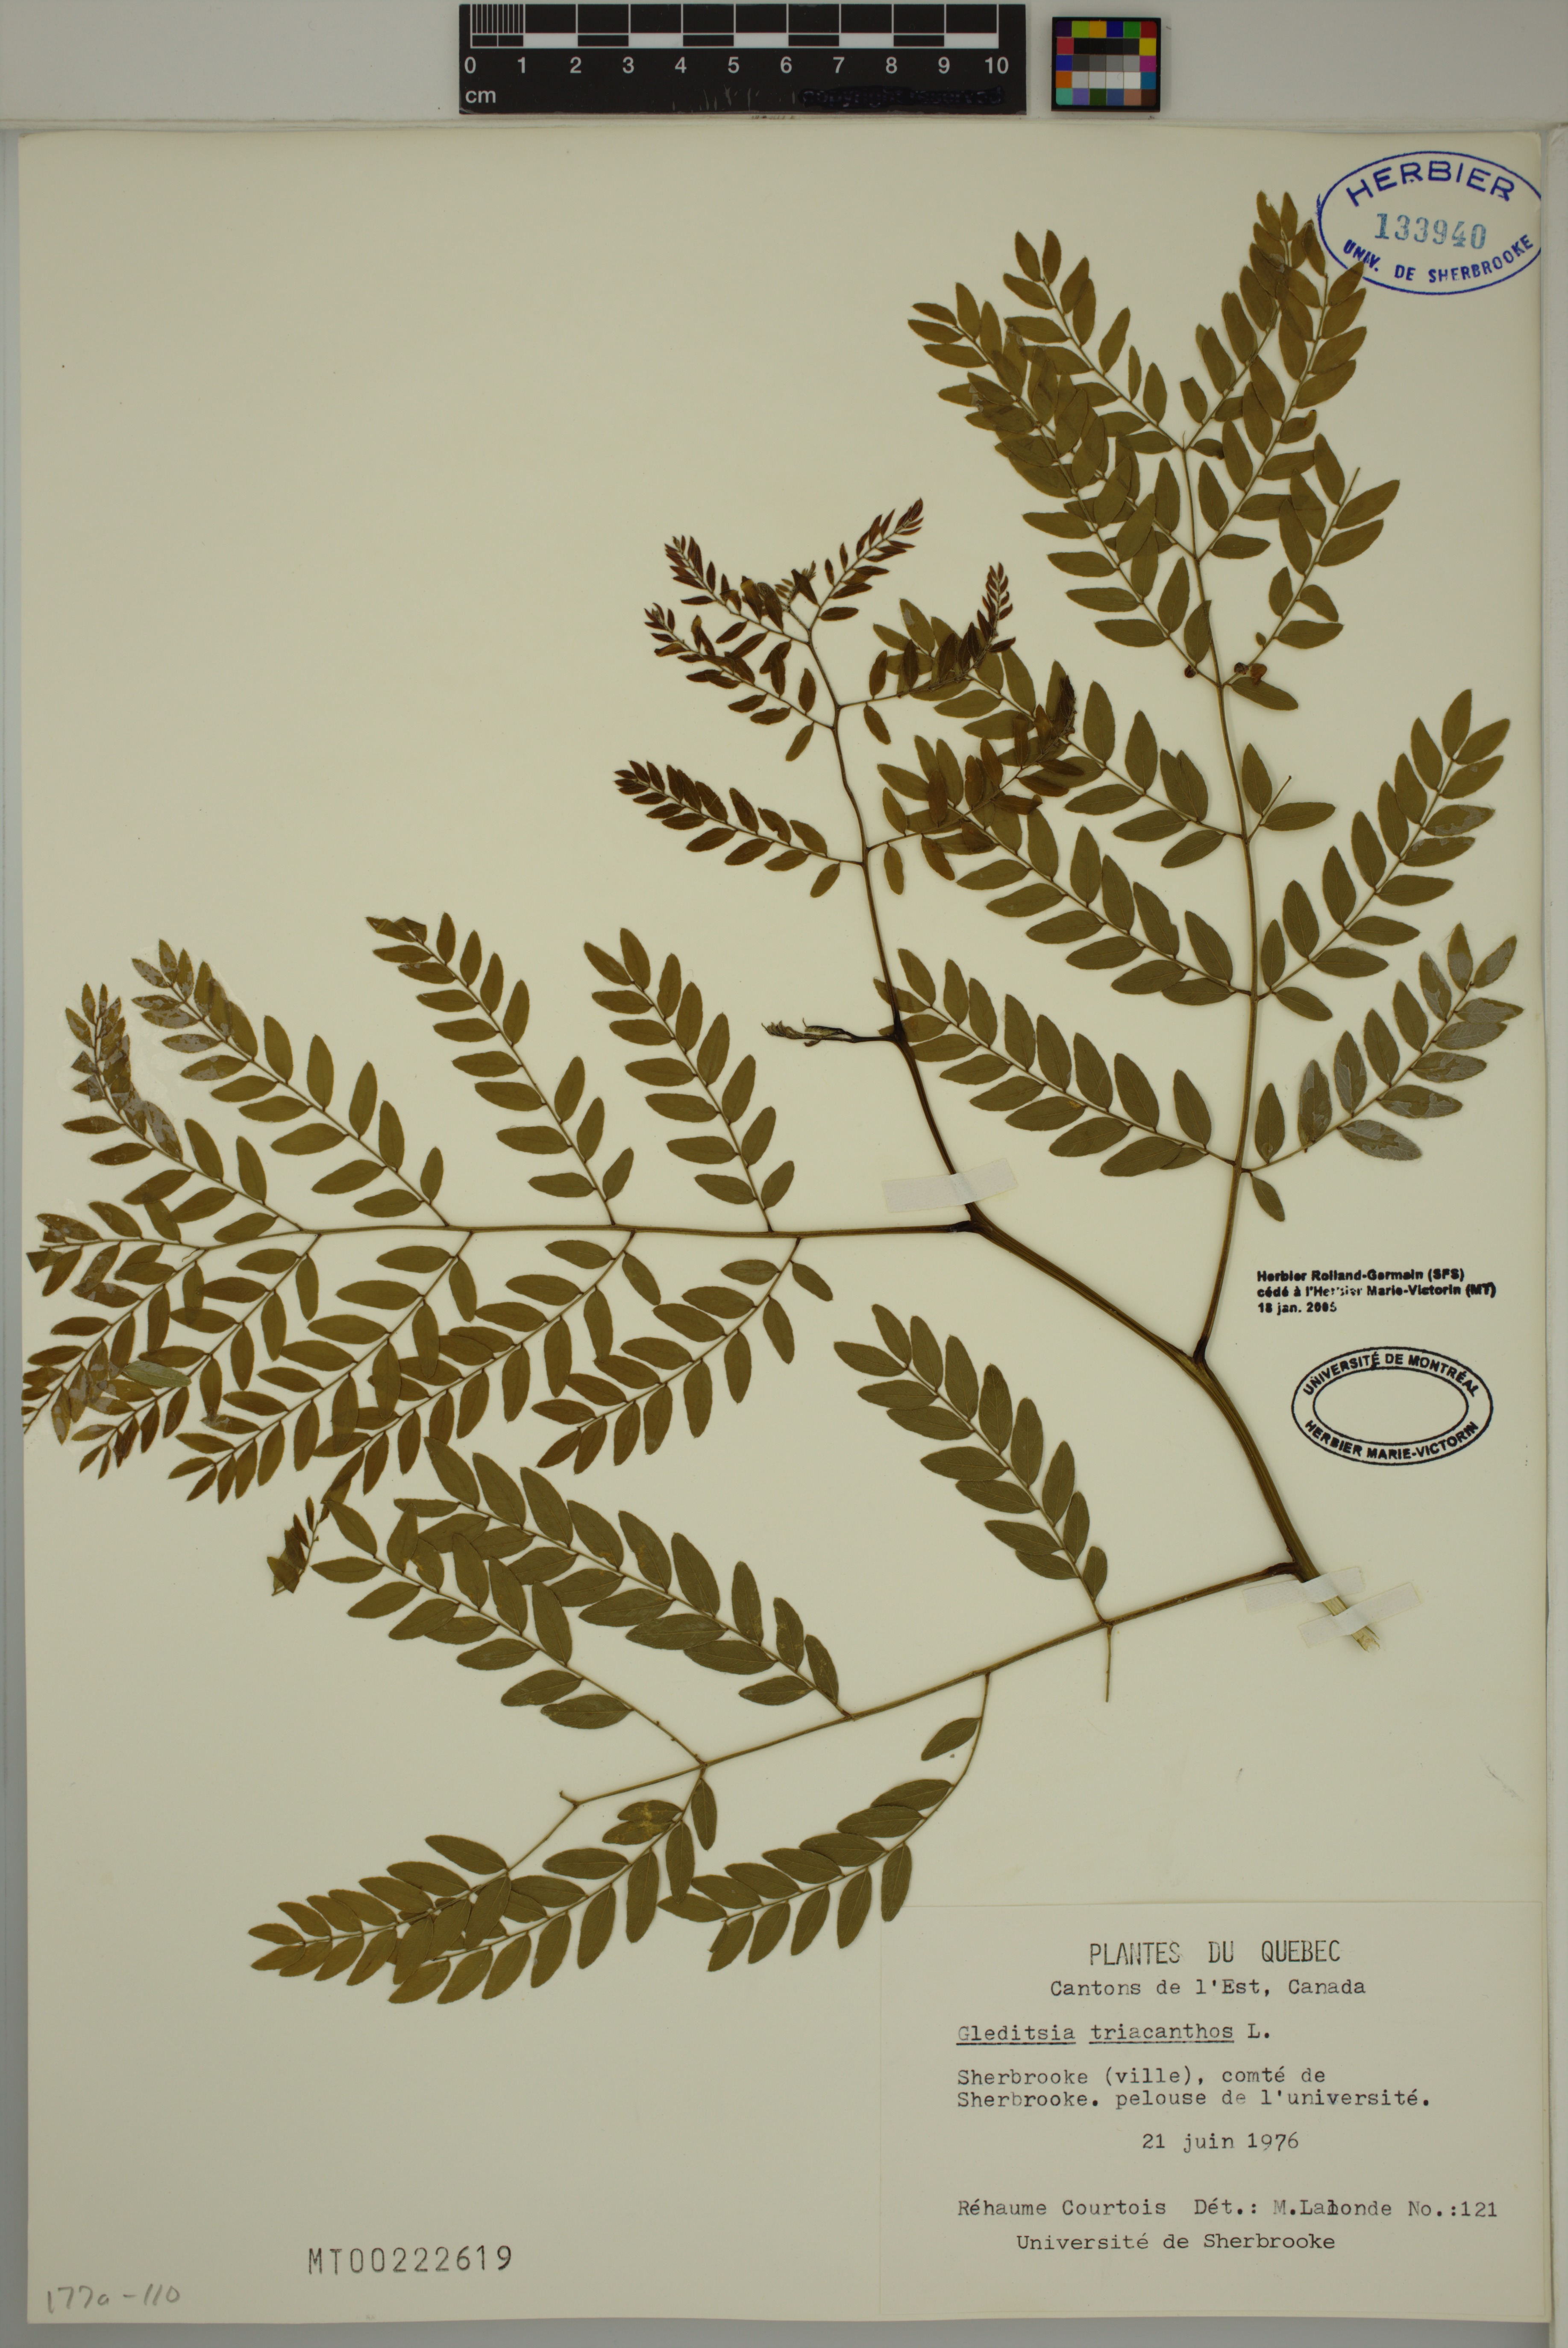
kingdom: Plantae
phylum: Tracheophyta
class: Magnoliopsida
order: Fabales
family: Fabaceae
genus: Gleditsia
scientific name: Gleditsia triacanthos
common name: Common honeylocust
